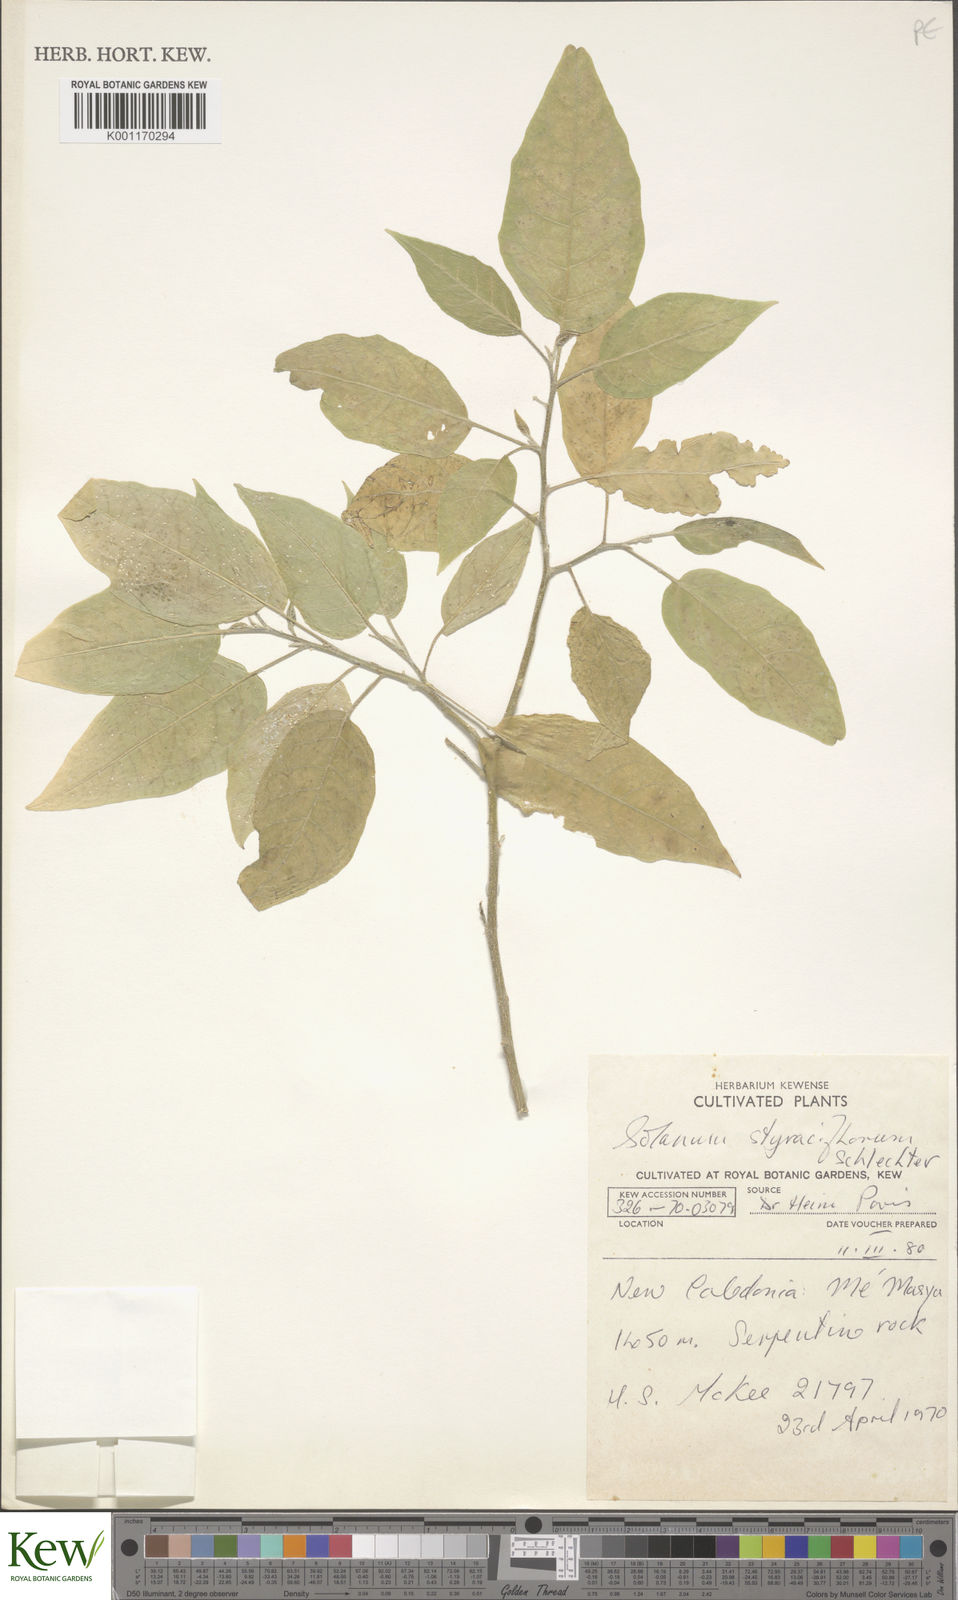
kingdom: Plantae
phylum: Tracheophyta
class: Magnoliopsida
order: Solanales
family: Solanaceae
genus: Solanum
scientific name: Solanum artense
